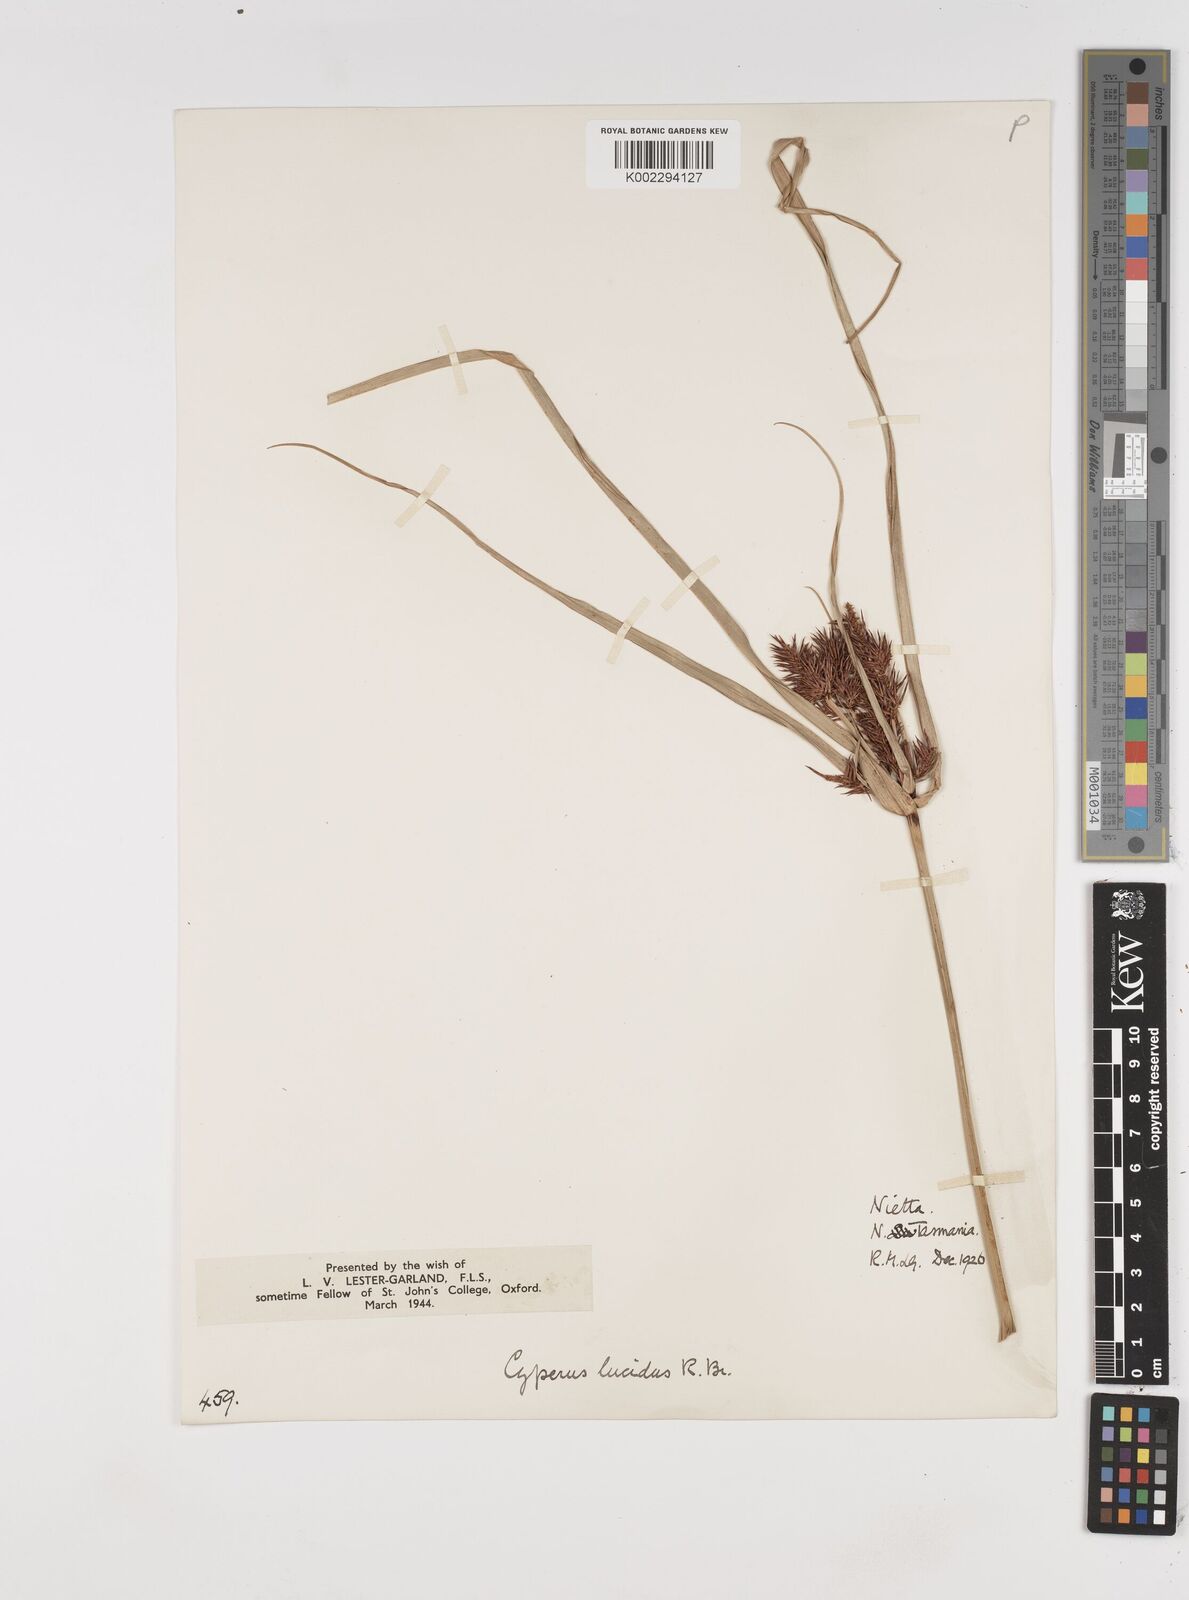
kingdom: Plantae
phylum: Tracheophyta
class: Liliopsida
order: Poales
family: Cyperaceae
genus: Cyperus
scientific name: Cyperus lucidus
